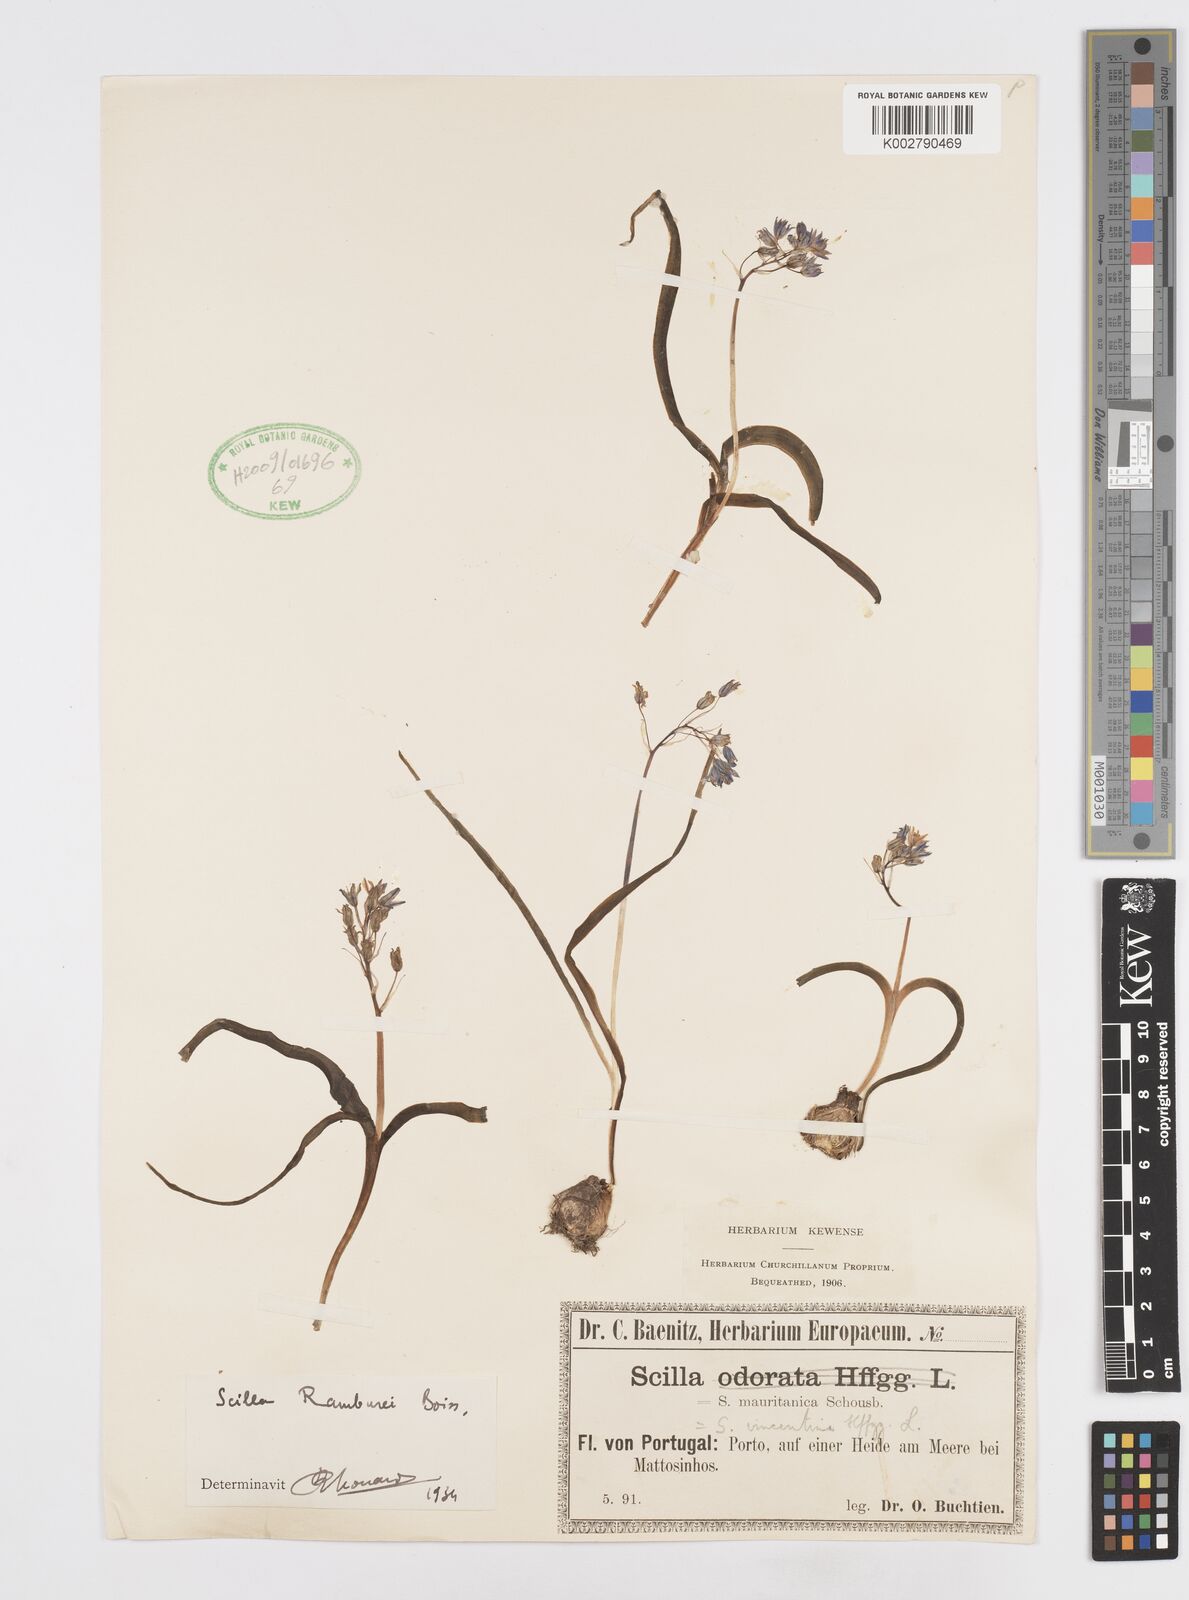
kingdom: Plantae
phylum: Tracheophyta
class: Liliopsida
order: Asparagales
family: Asparagaceae
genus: Scilla
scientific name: Scilla verna
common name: Spring squill
